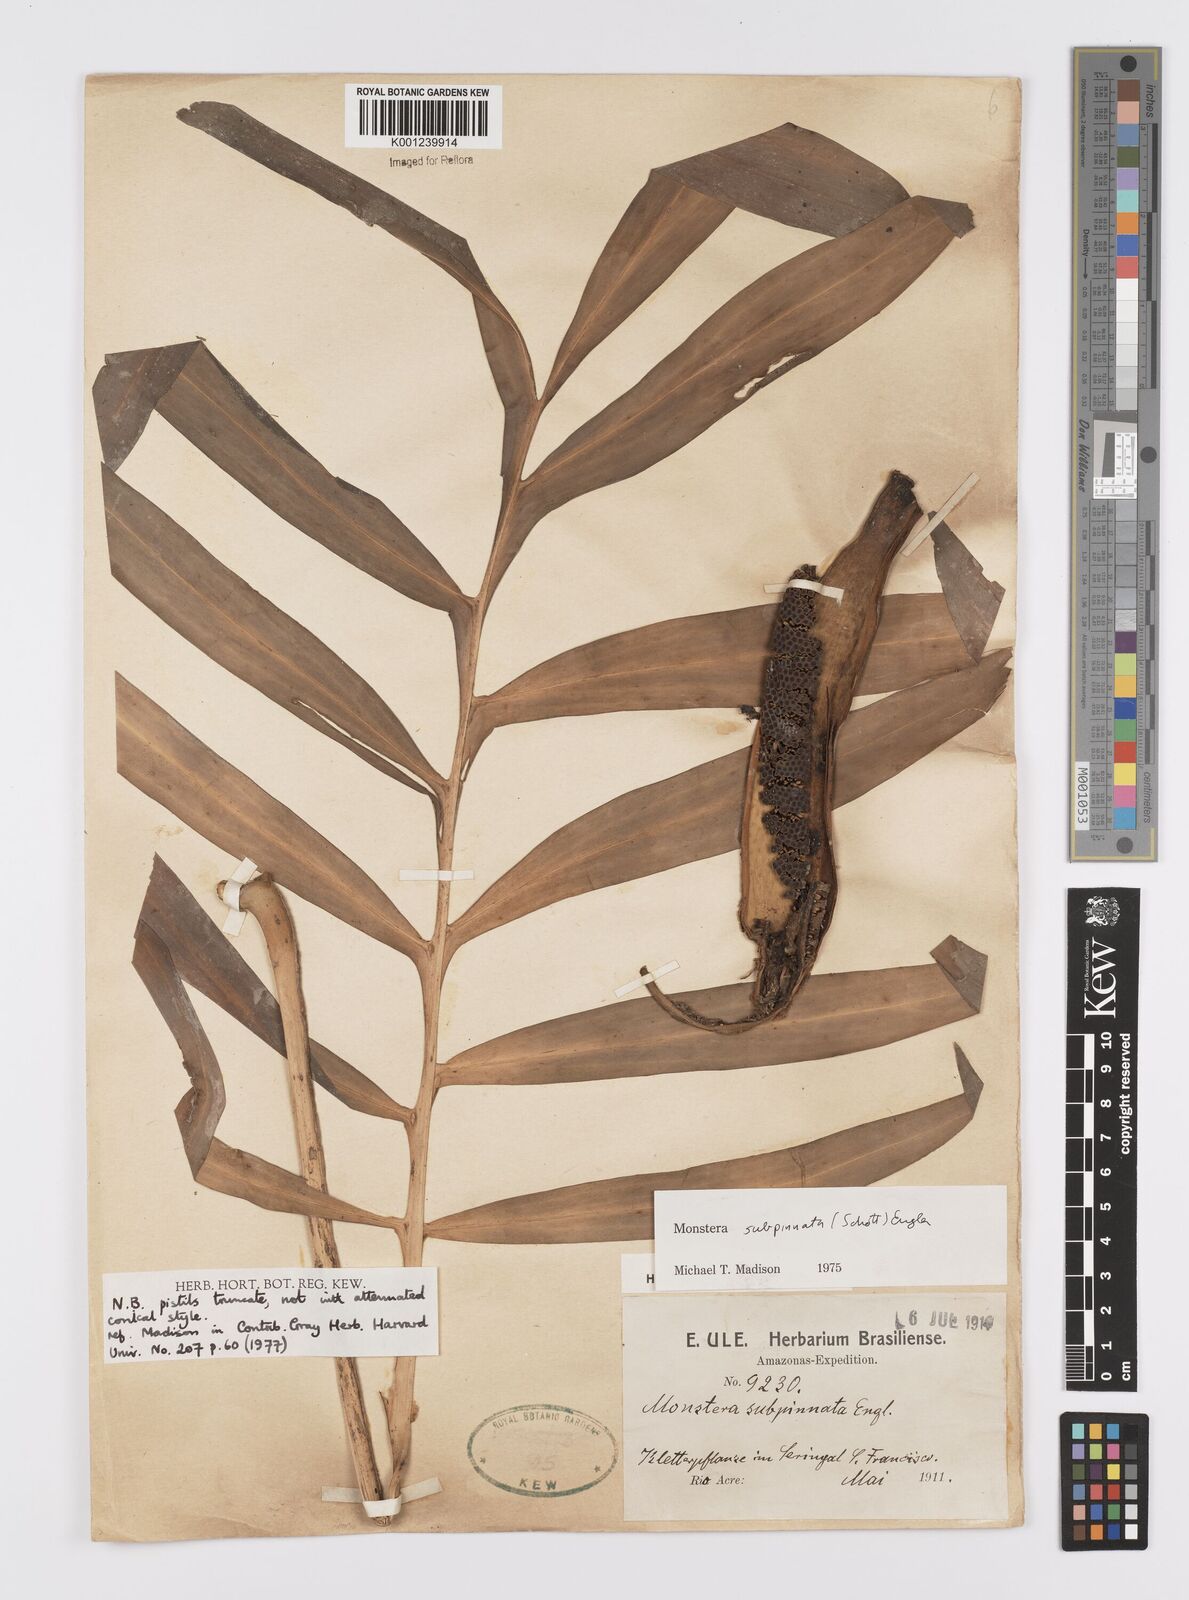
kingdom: Plantae
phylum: Tracheophyta
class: Liliopsida
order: Alismatales
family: Araceae
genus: Monstera
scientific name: Monstera subpinnata
